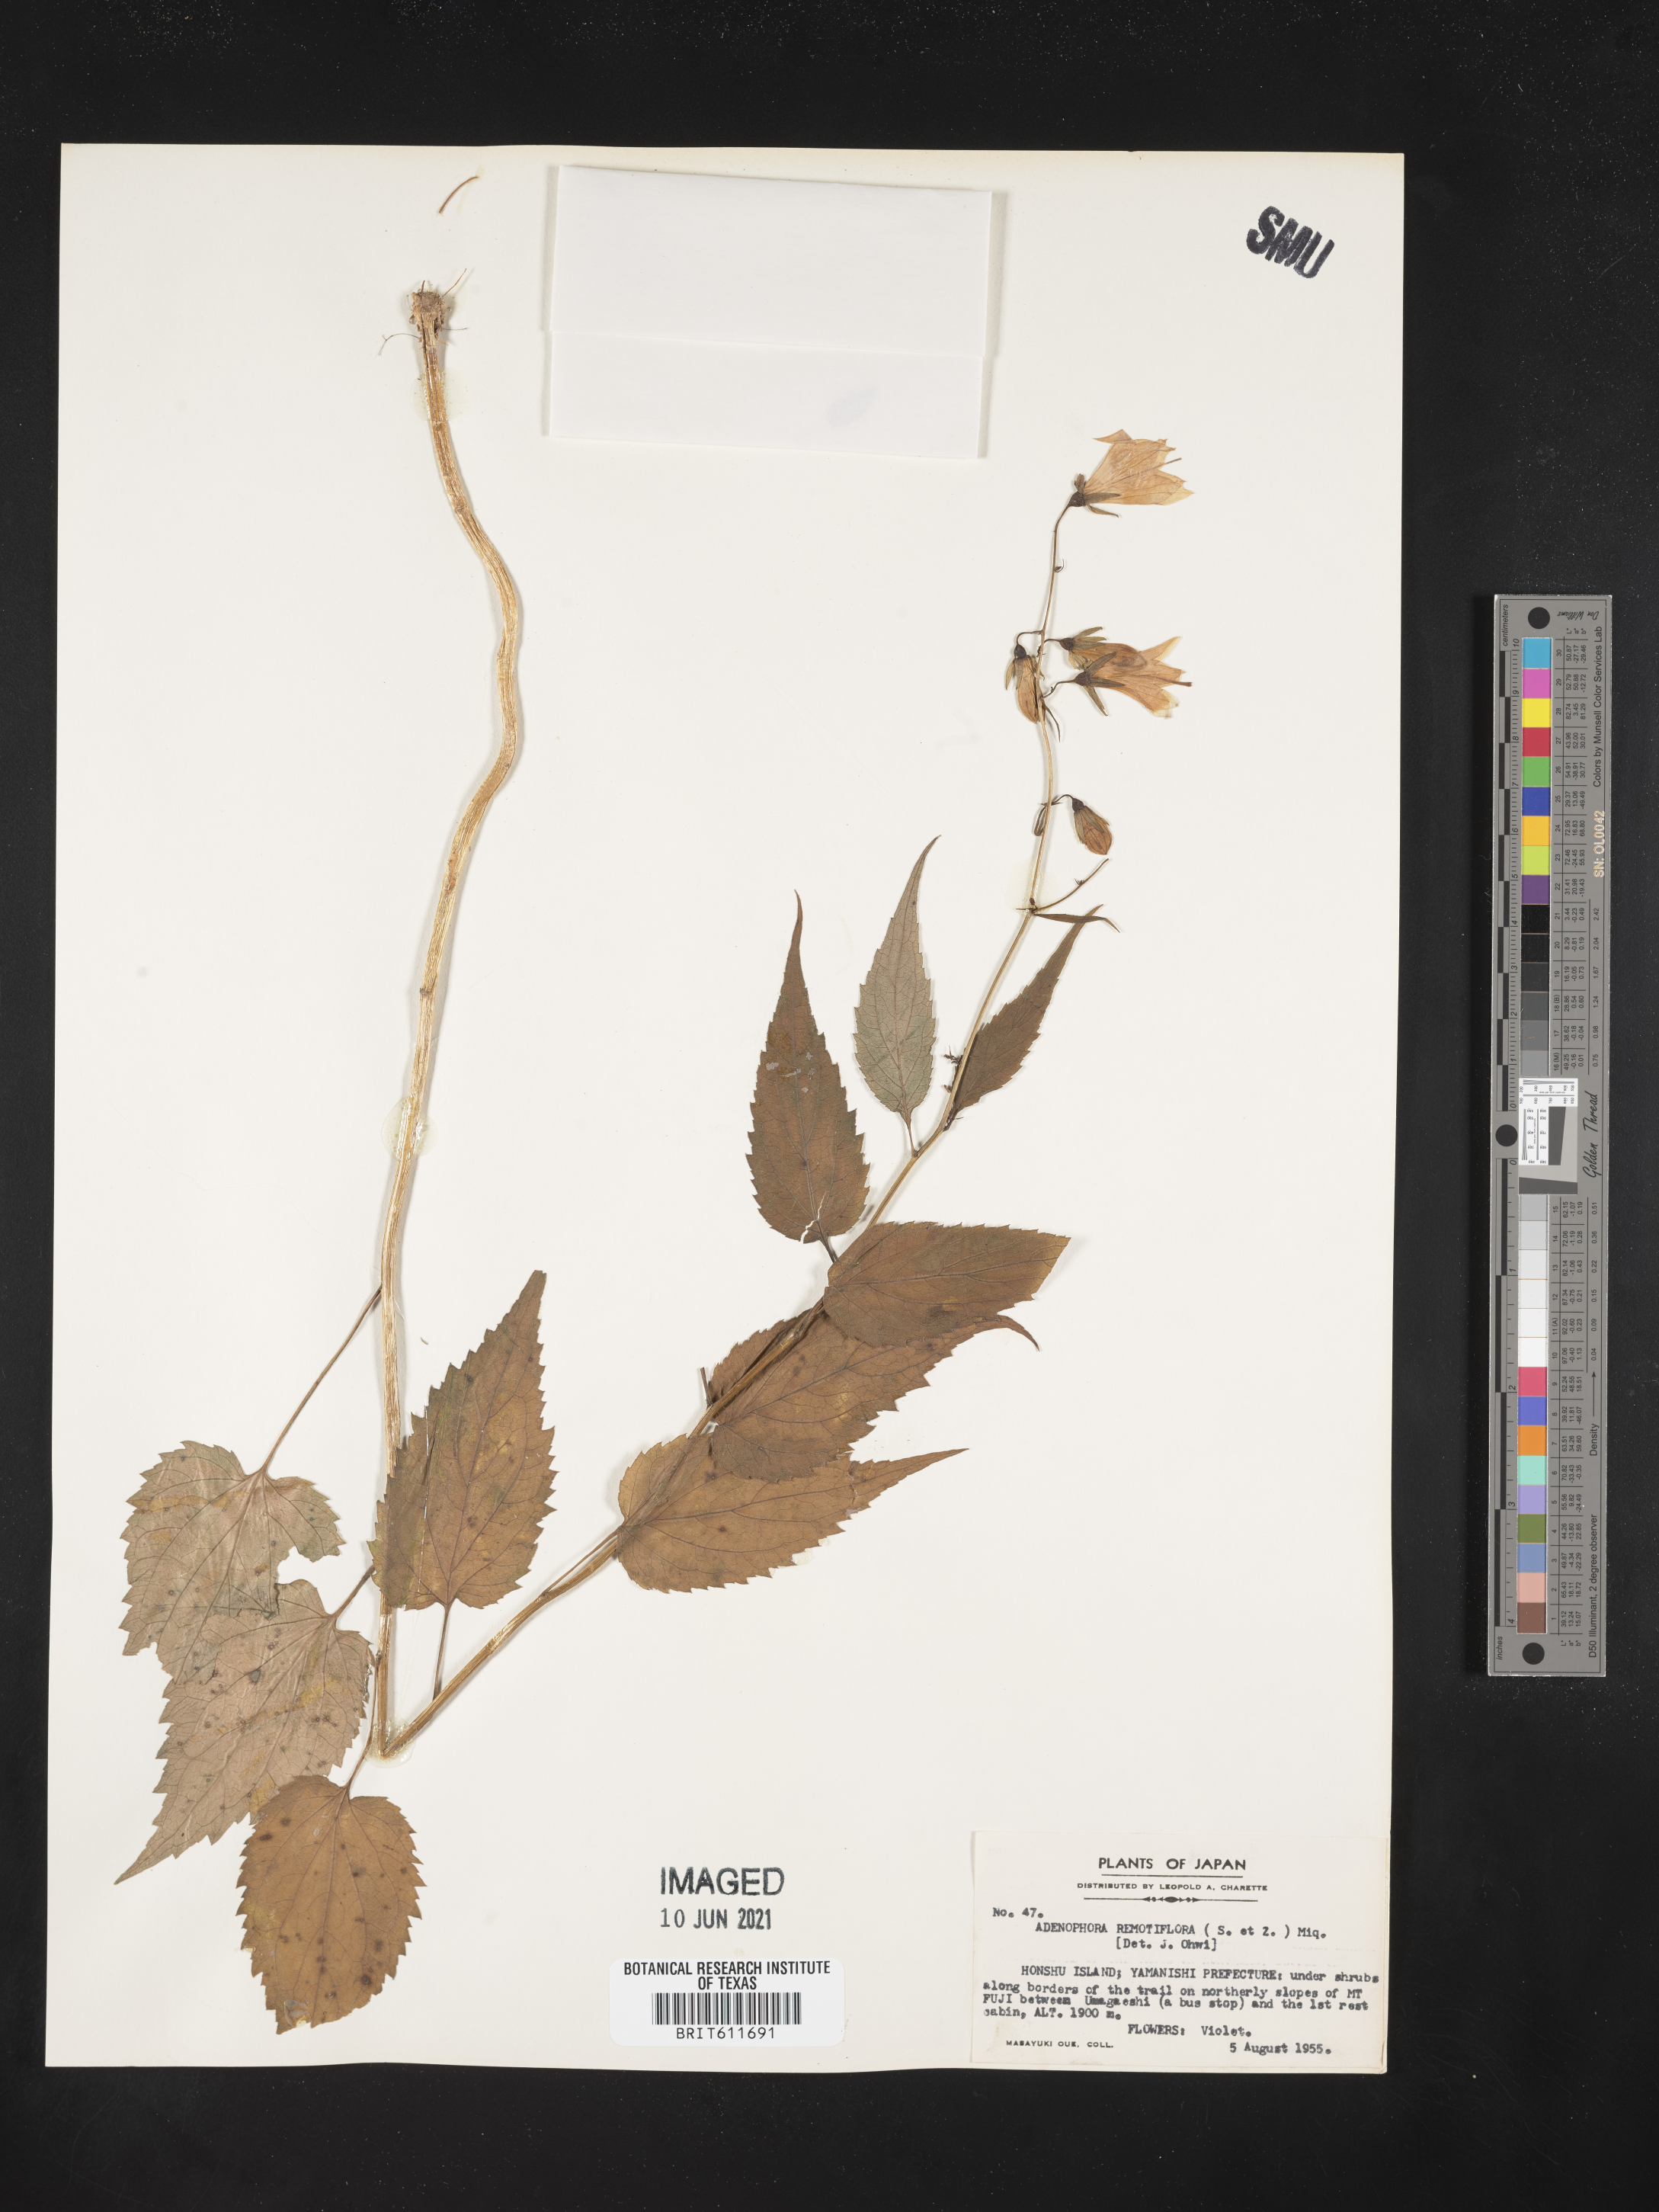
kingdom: Plantae
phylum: Tracheophyta
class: Magnoliopsida
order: Asterales
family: Campanulaceae
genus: Adenophora
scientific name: Adenophora remotiflora
